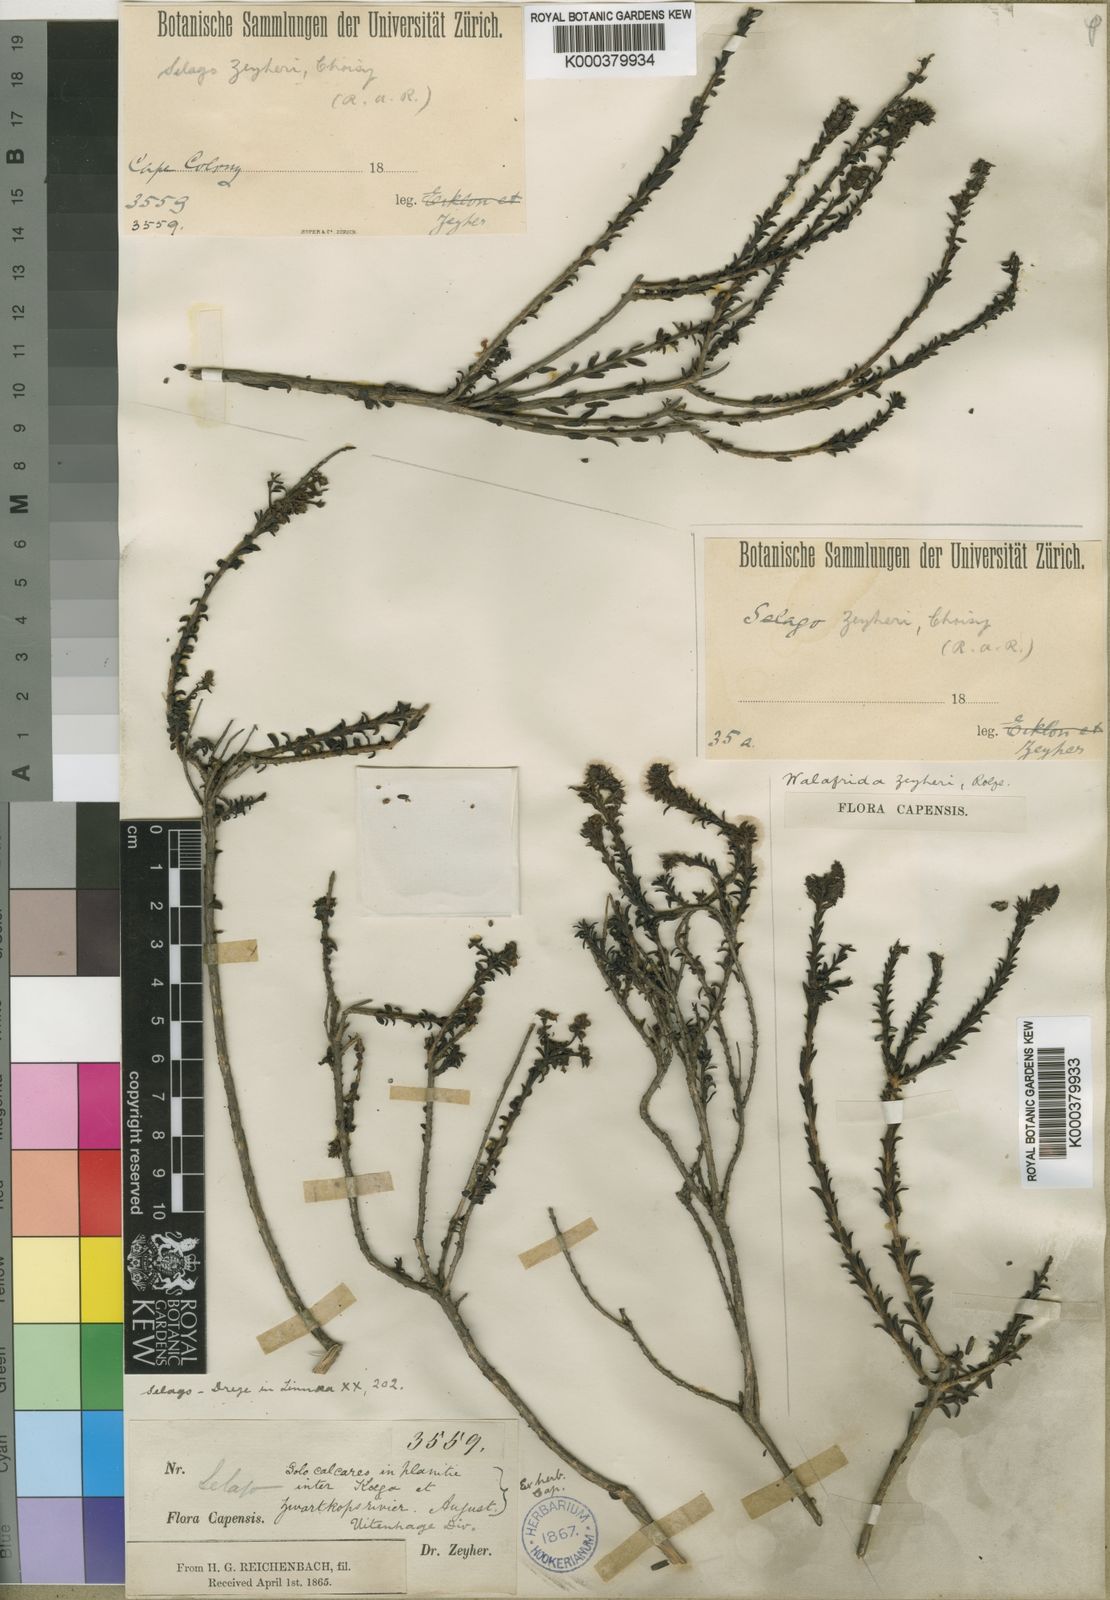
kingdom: Plantae
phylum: Tracheophyta
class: Magnoliopsida
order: Lamiales
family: Scrophulariaceae
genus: Selago
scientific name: Selago zeyheri
